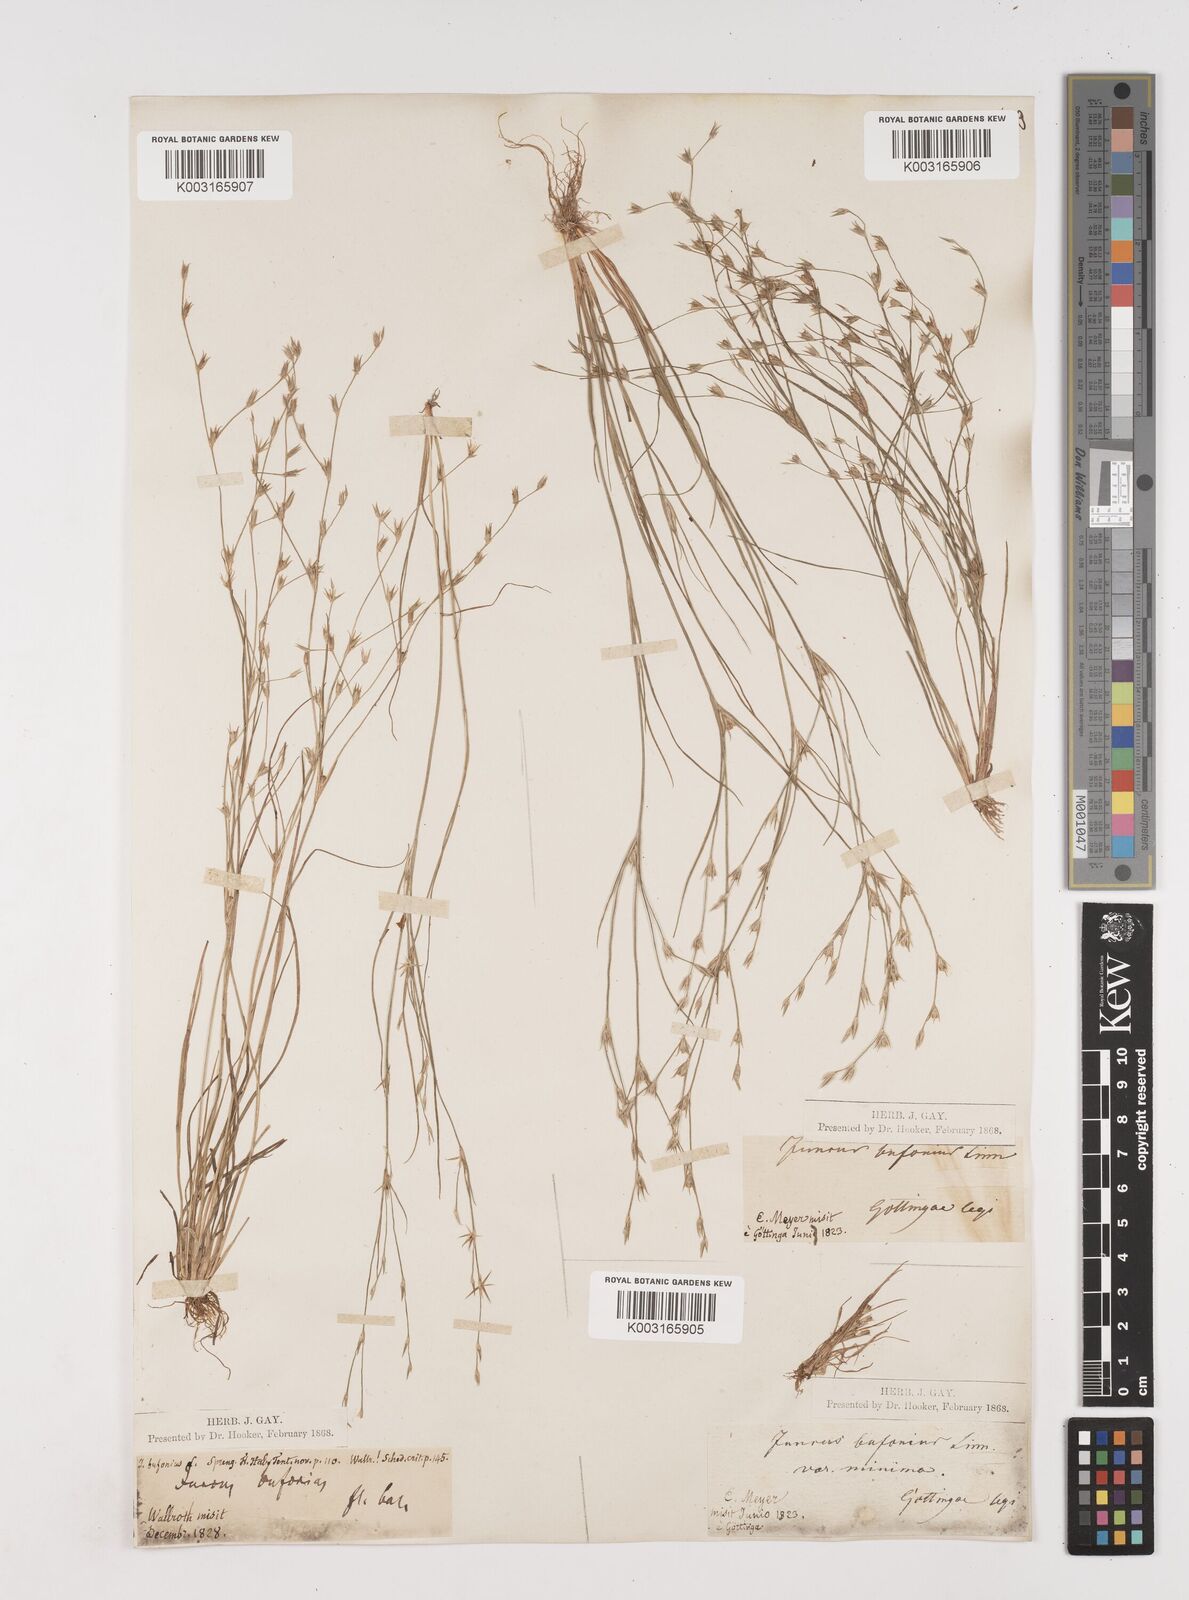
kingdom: Plantae
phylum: Tracheophyta
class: Liliopsida
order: Poales
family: Juncaceae
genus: Juncus
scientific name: Juncus bufonius
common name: Toad rush
